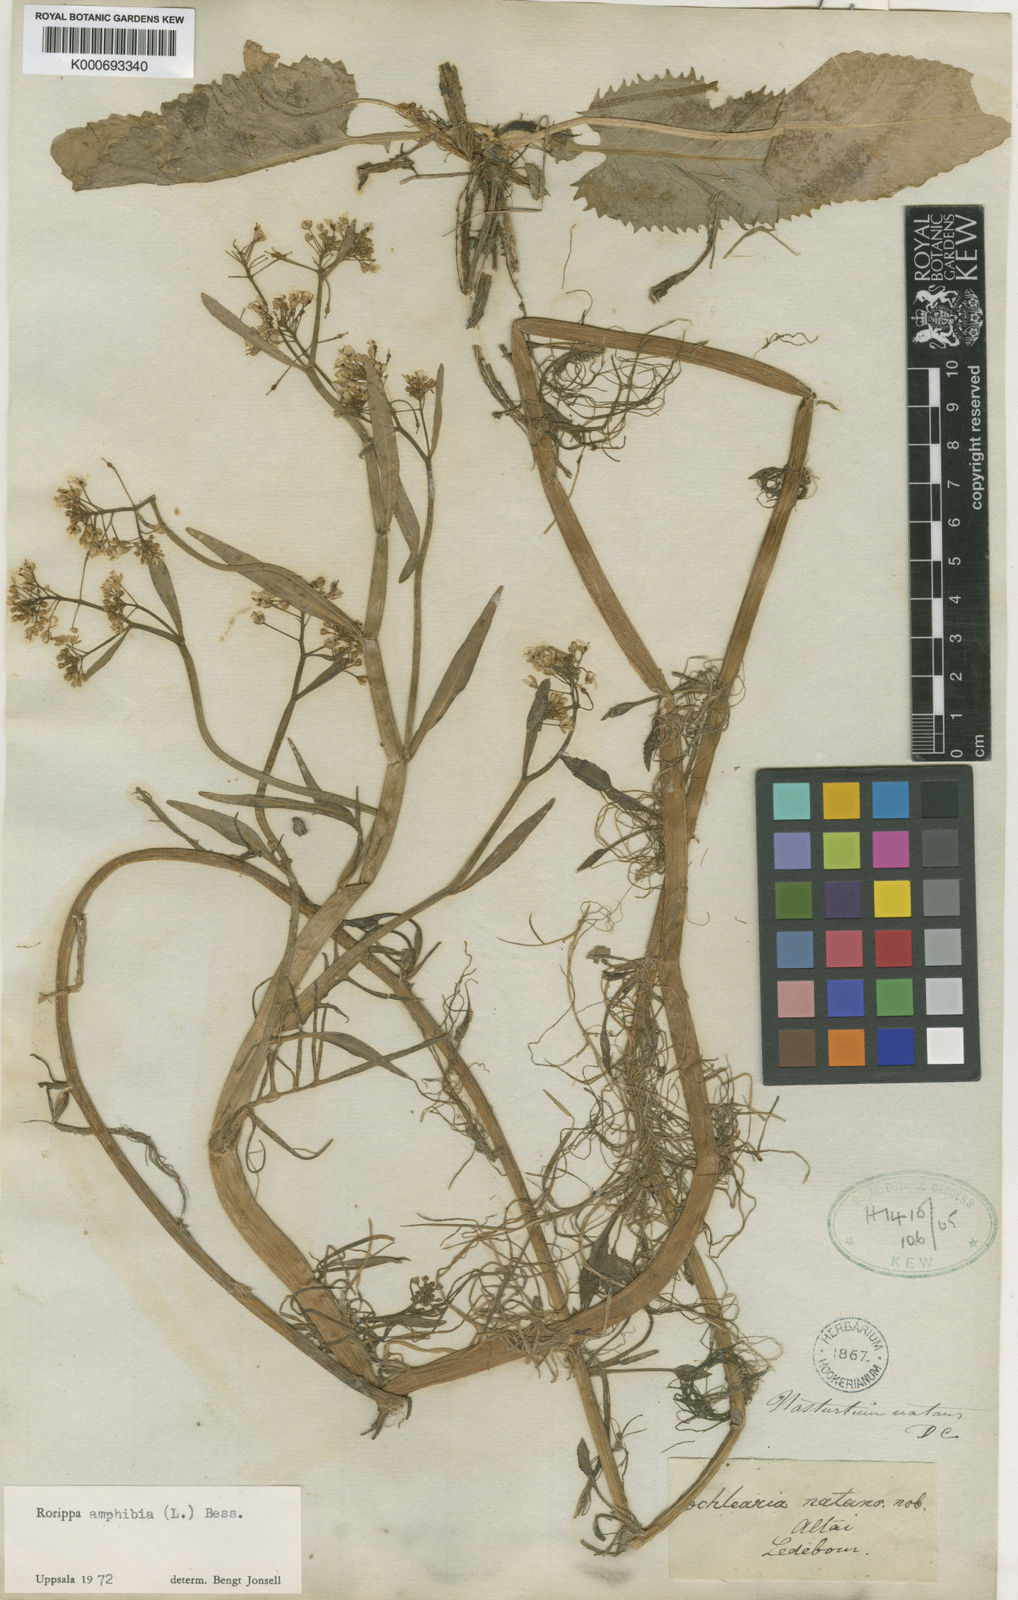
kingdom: Plantae
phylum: Tracheophyta
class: Magnoliopsida
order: Brassicales
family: Brassicaceae
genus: Rorippa
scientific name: Rorippa
